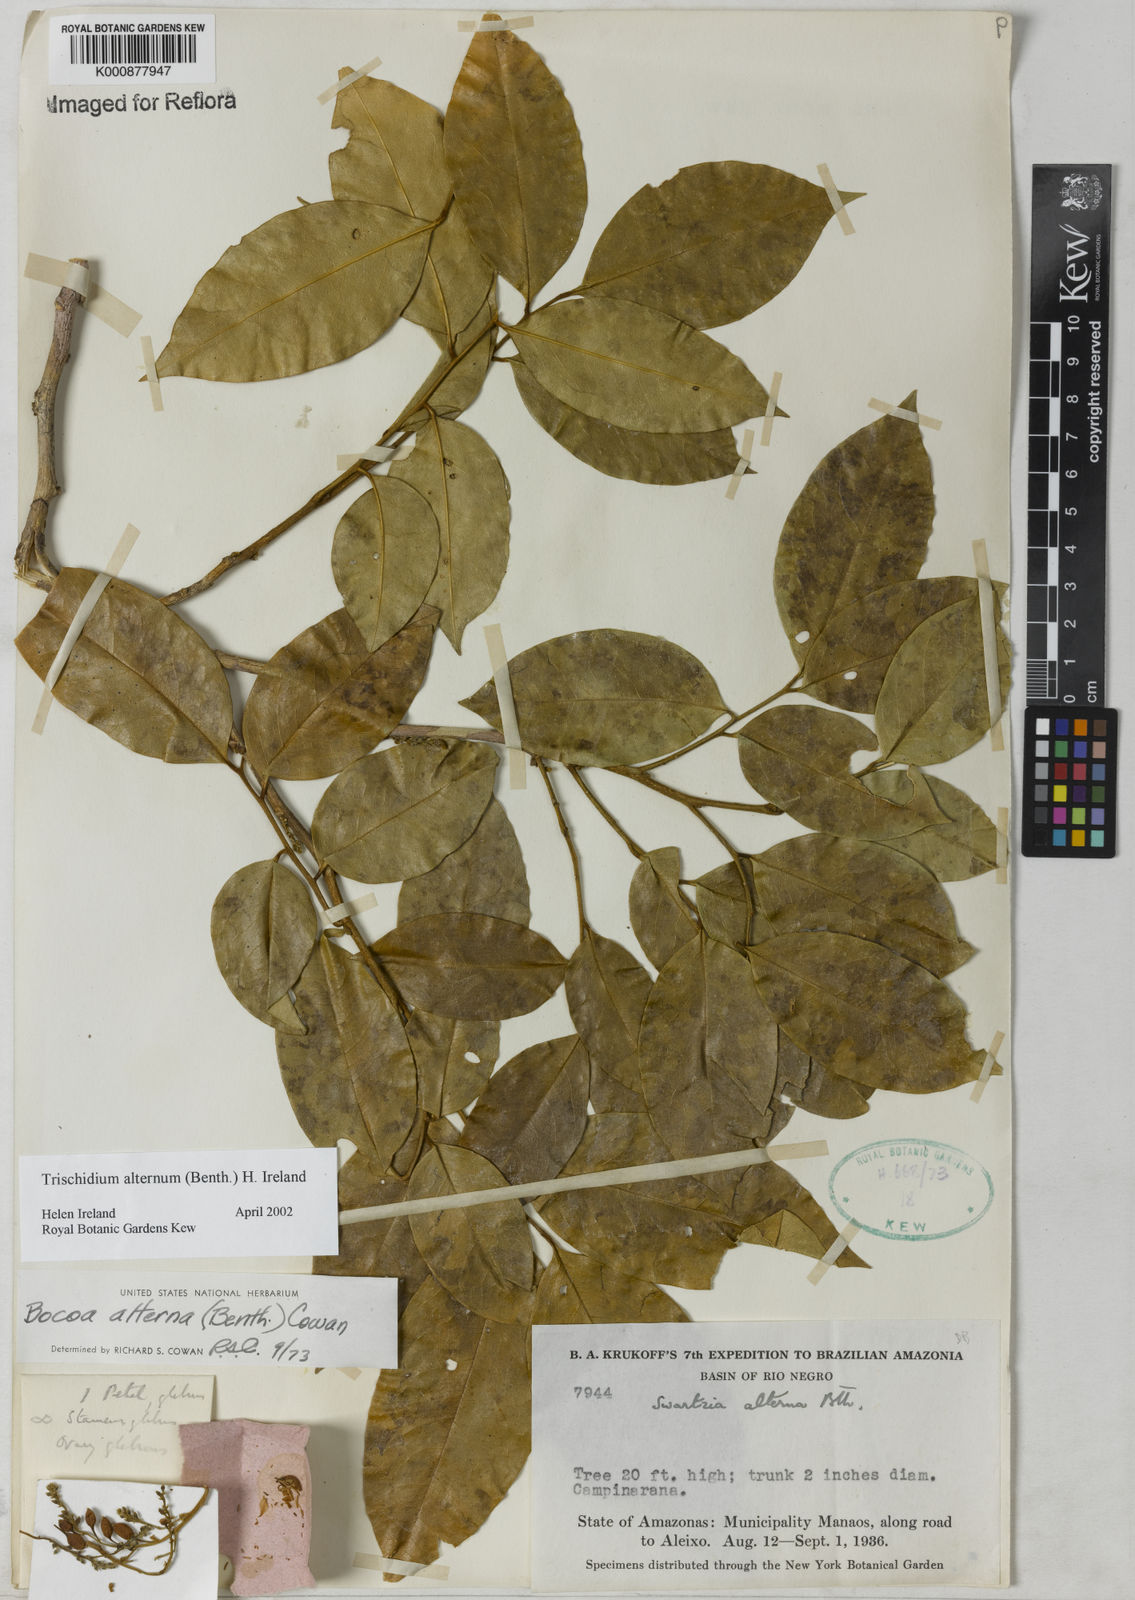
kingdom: Plantae
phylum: Tracheophyta
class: Magnoliopsida
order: Fabales
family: Fabaceae
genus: Trischidium
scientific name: Trischidium alternum
